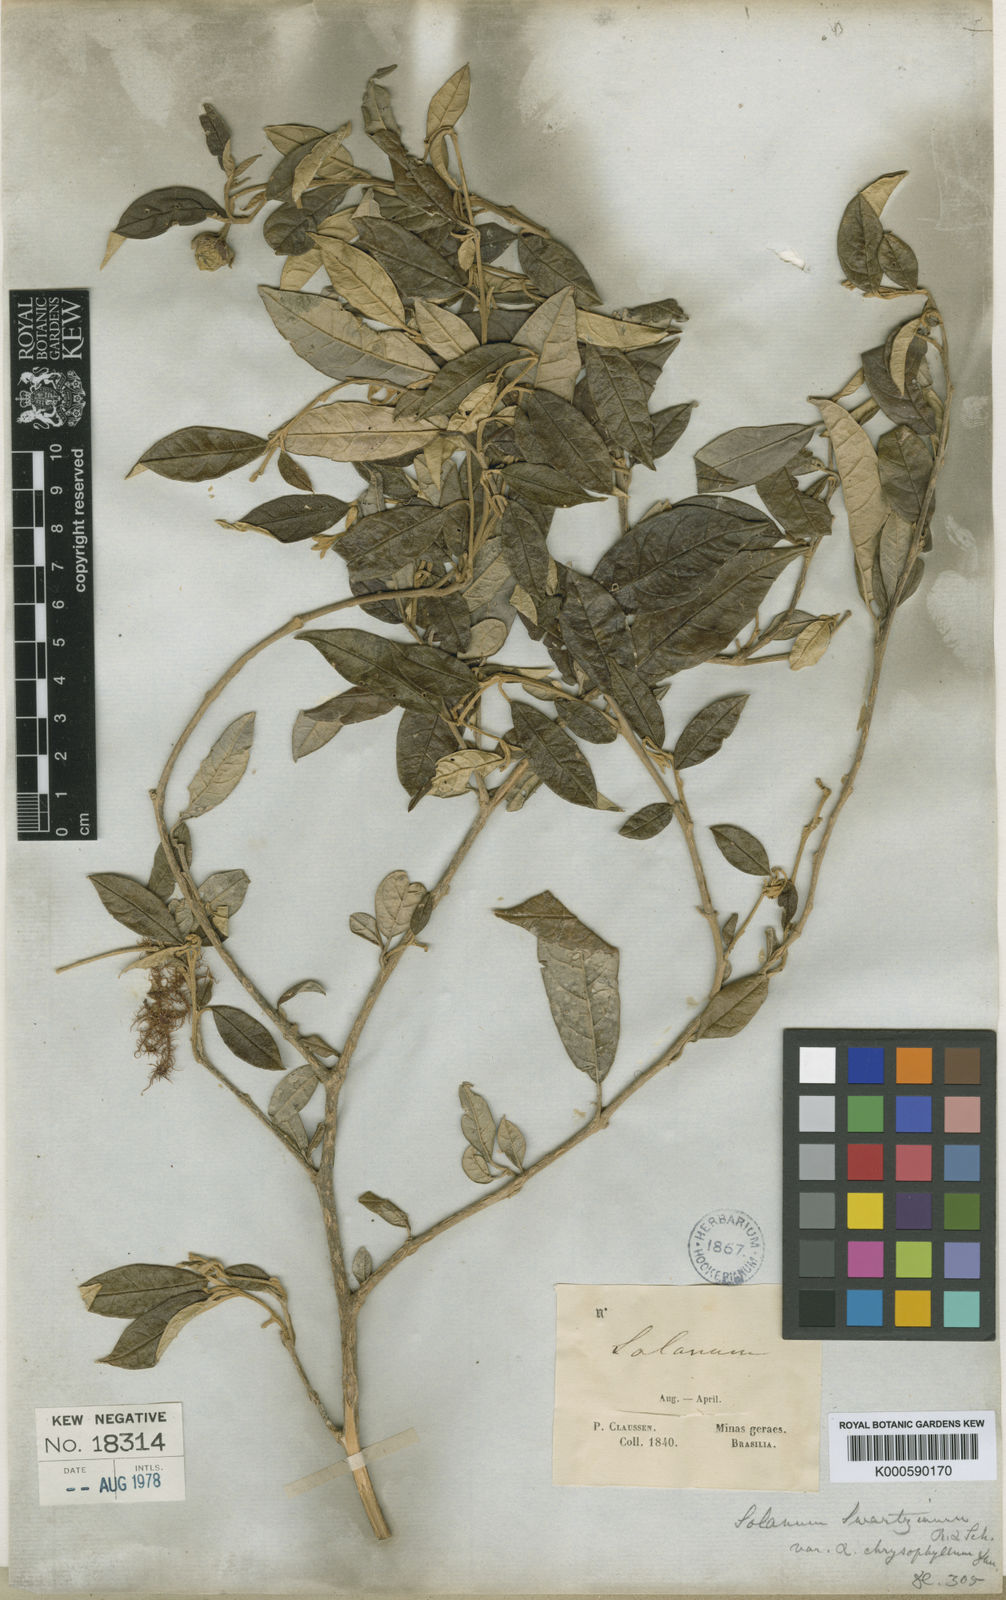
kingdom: Plantae
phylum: Tracheophyta
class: Magnoliopsida
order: Solanales
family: Solanaceae
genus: Solanum
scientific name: Solanum swartzianum
